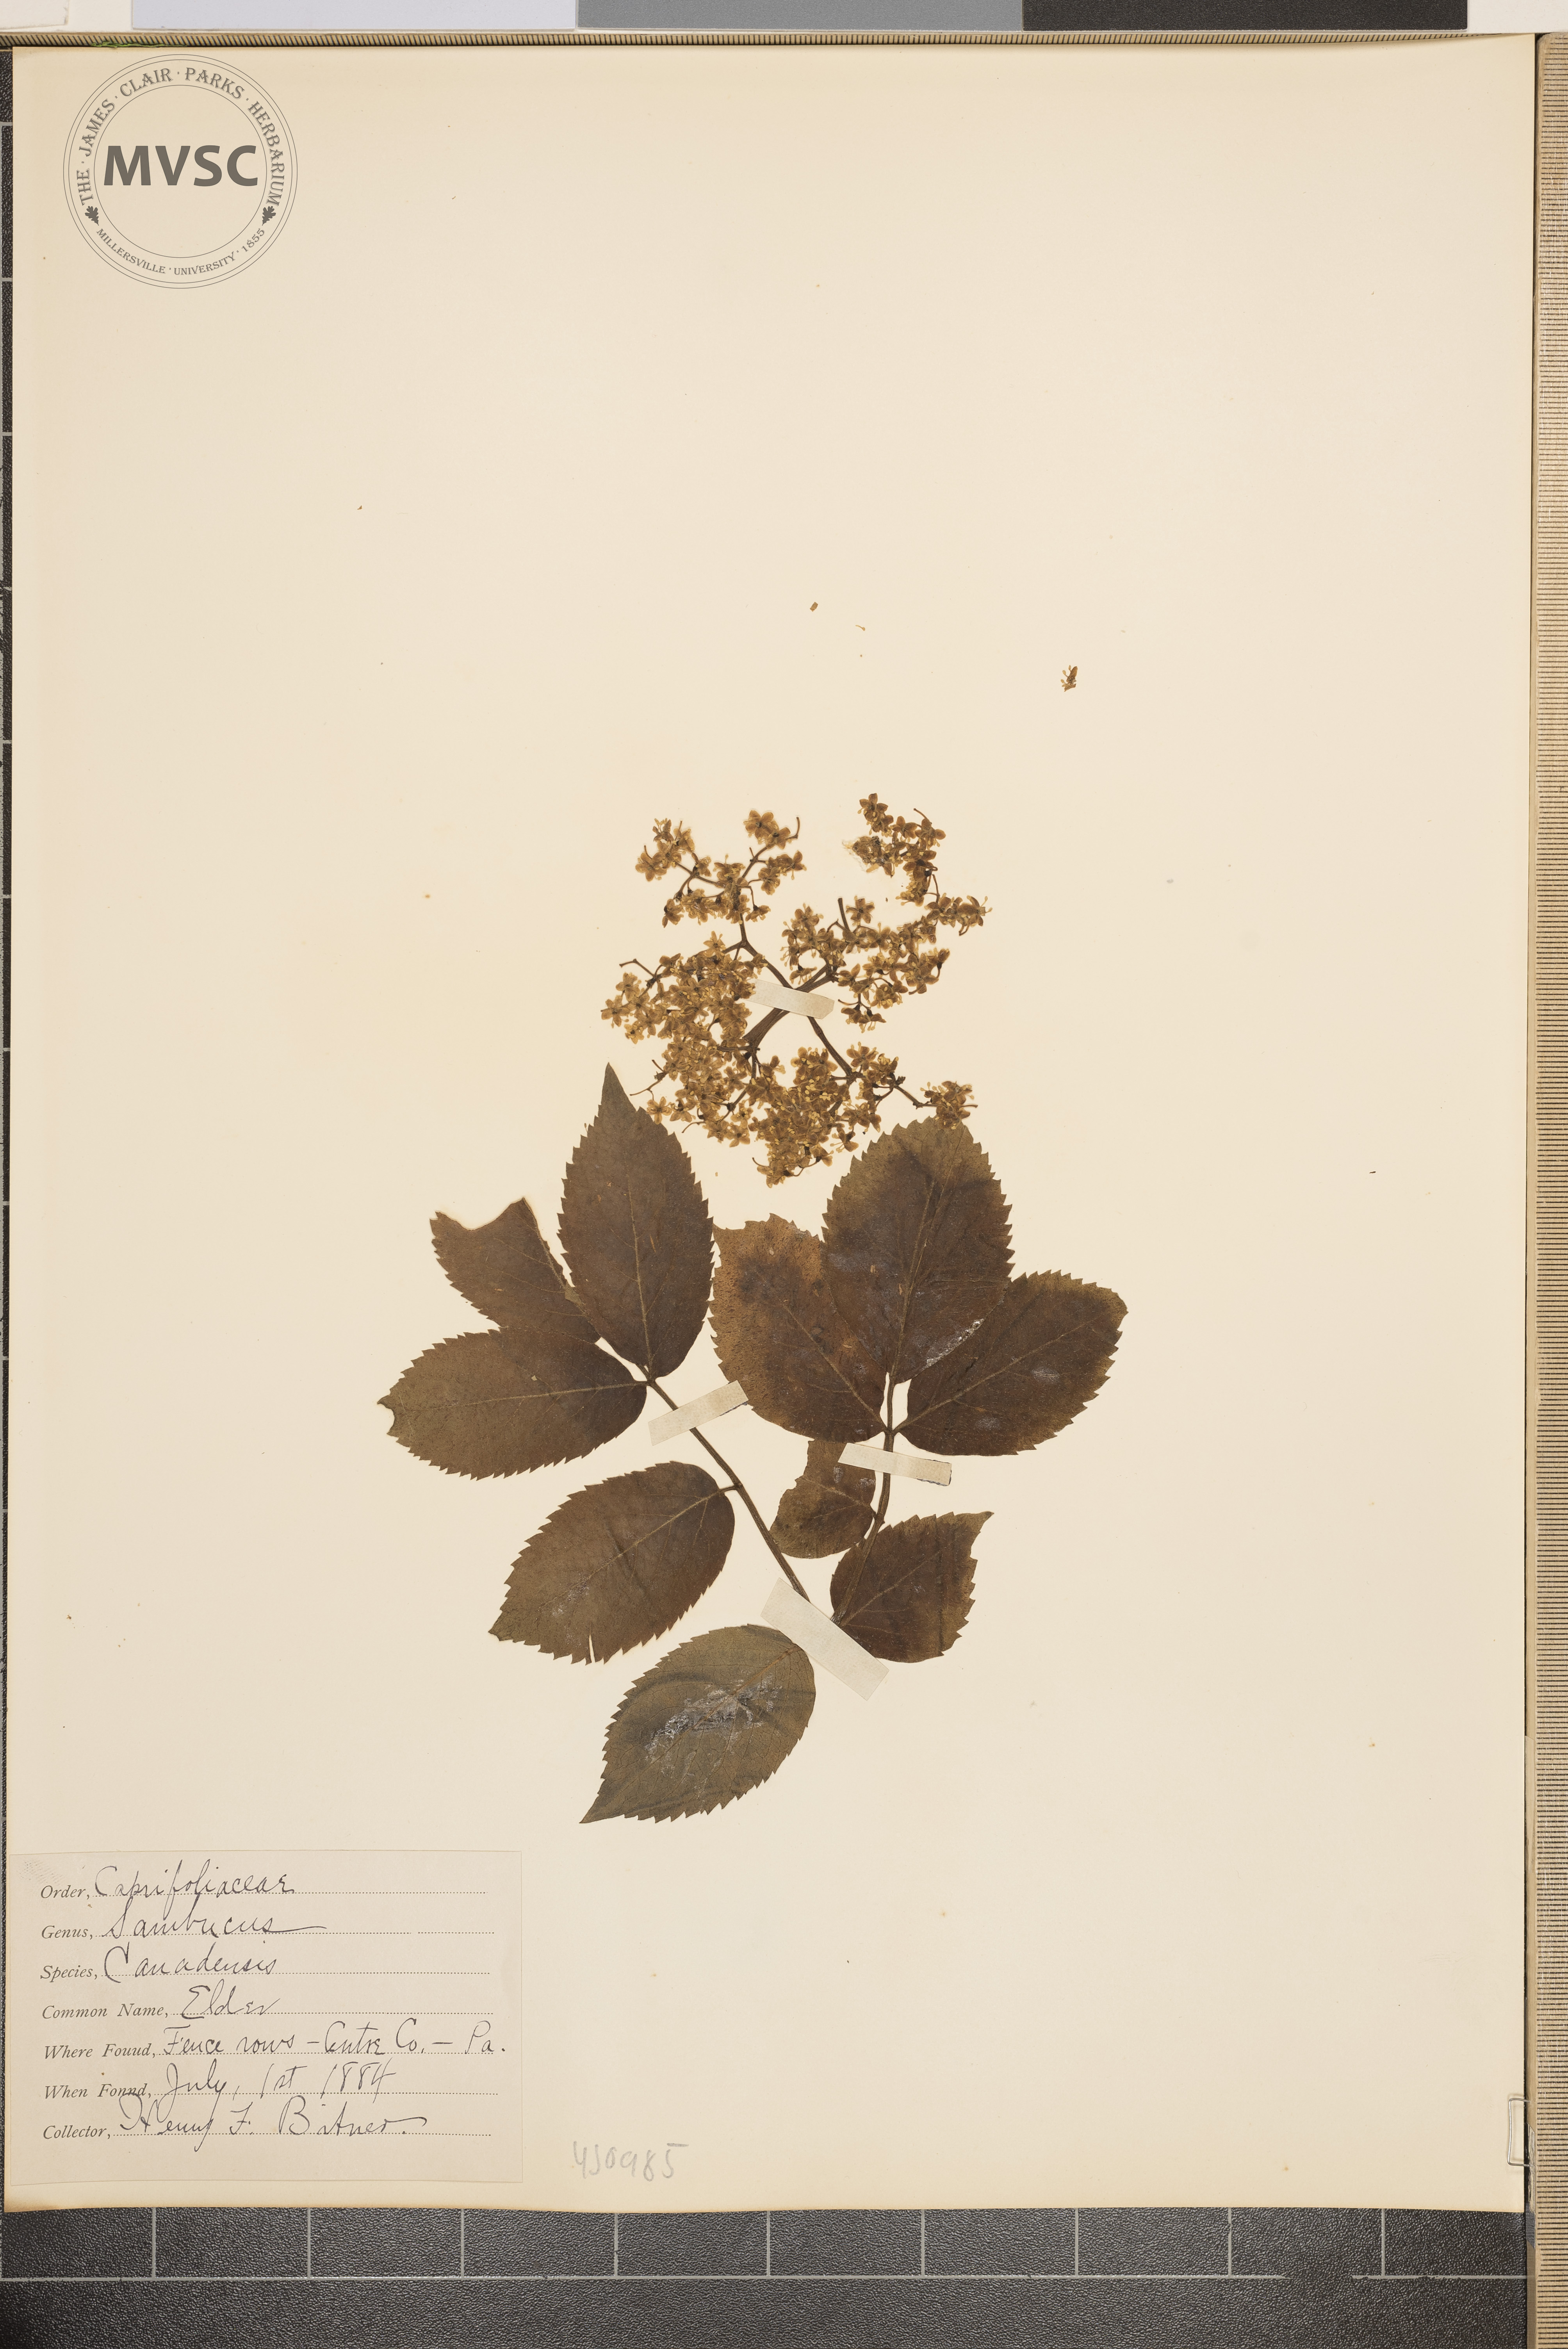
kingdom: Plantae
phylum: Tracheophyta
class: Magnoliopsida
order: Dipsacales
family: Viburnaceae
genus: Sambucus
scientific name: Sambucus canadensis
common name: Elder
